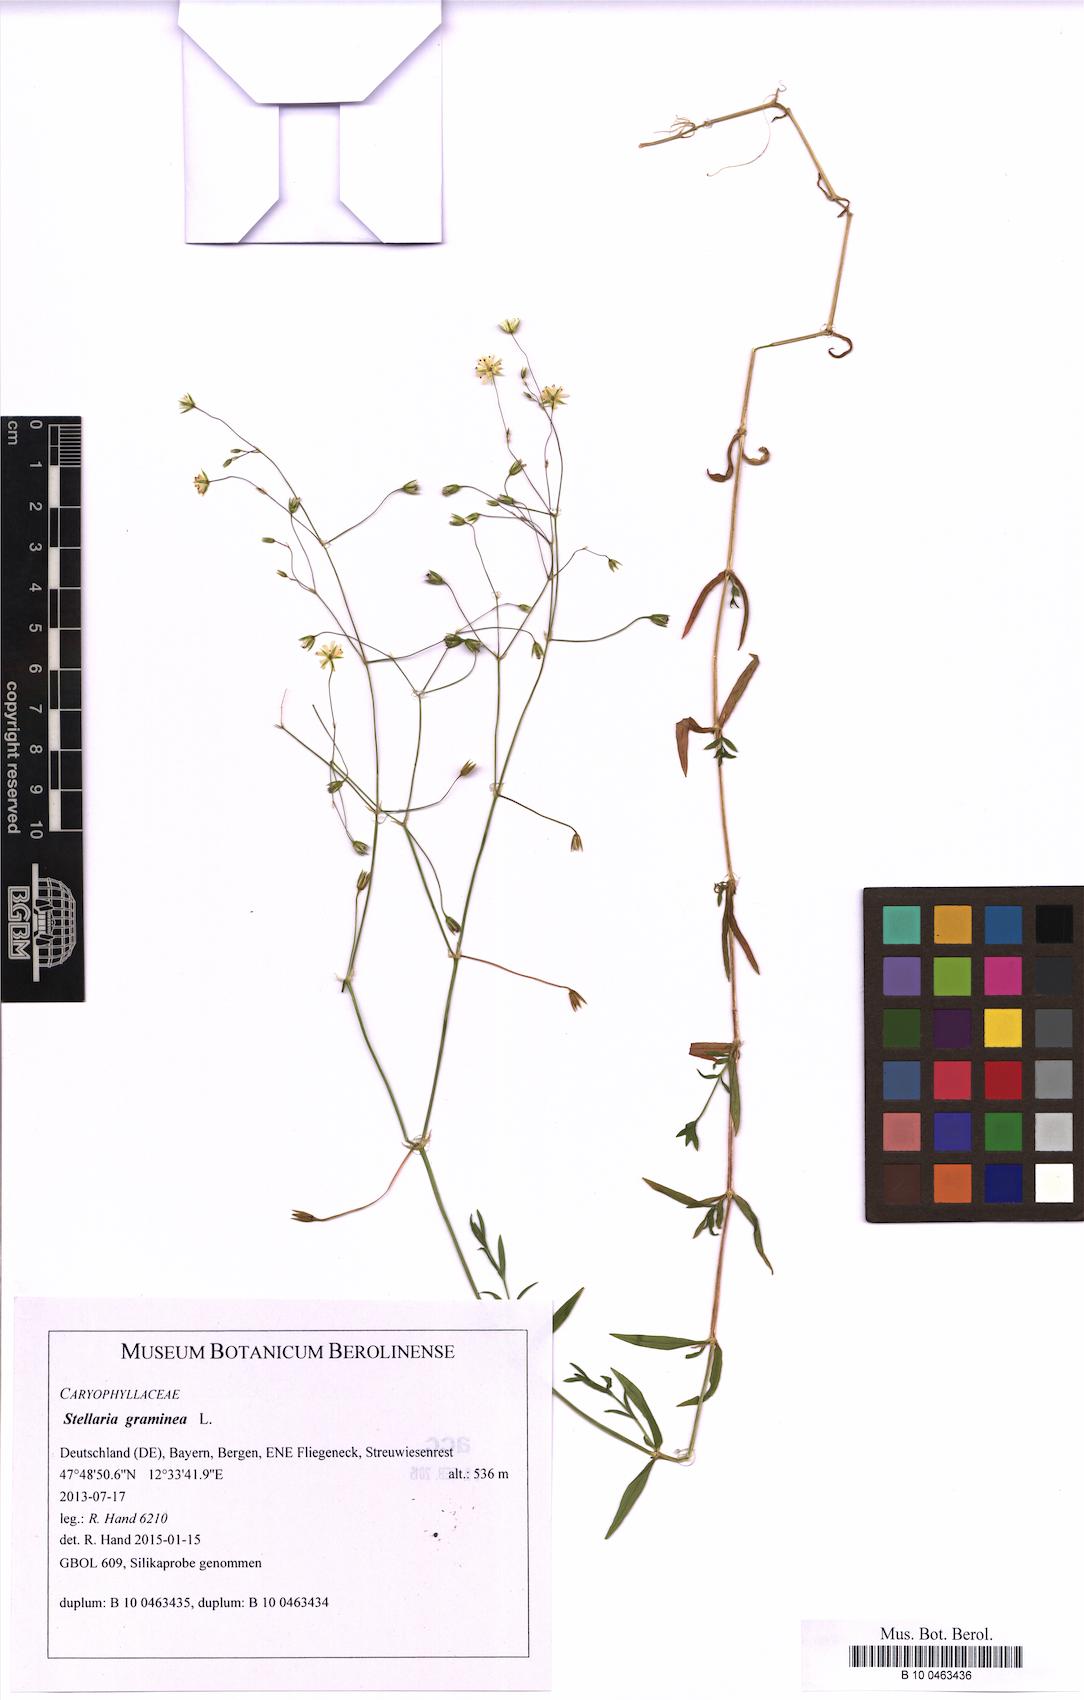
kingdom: Plantae
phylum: Tracheophyta
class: Magnoliopsida
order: Caryophyllales
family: Caryophyllaceae
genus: Stellaria
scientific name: Stellaria graminea
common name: Grass-like starwort
